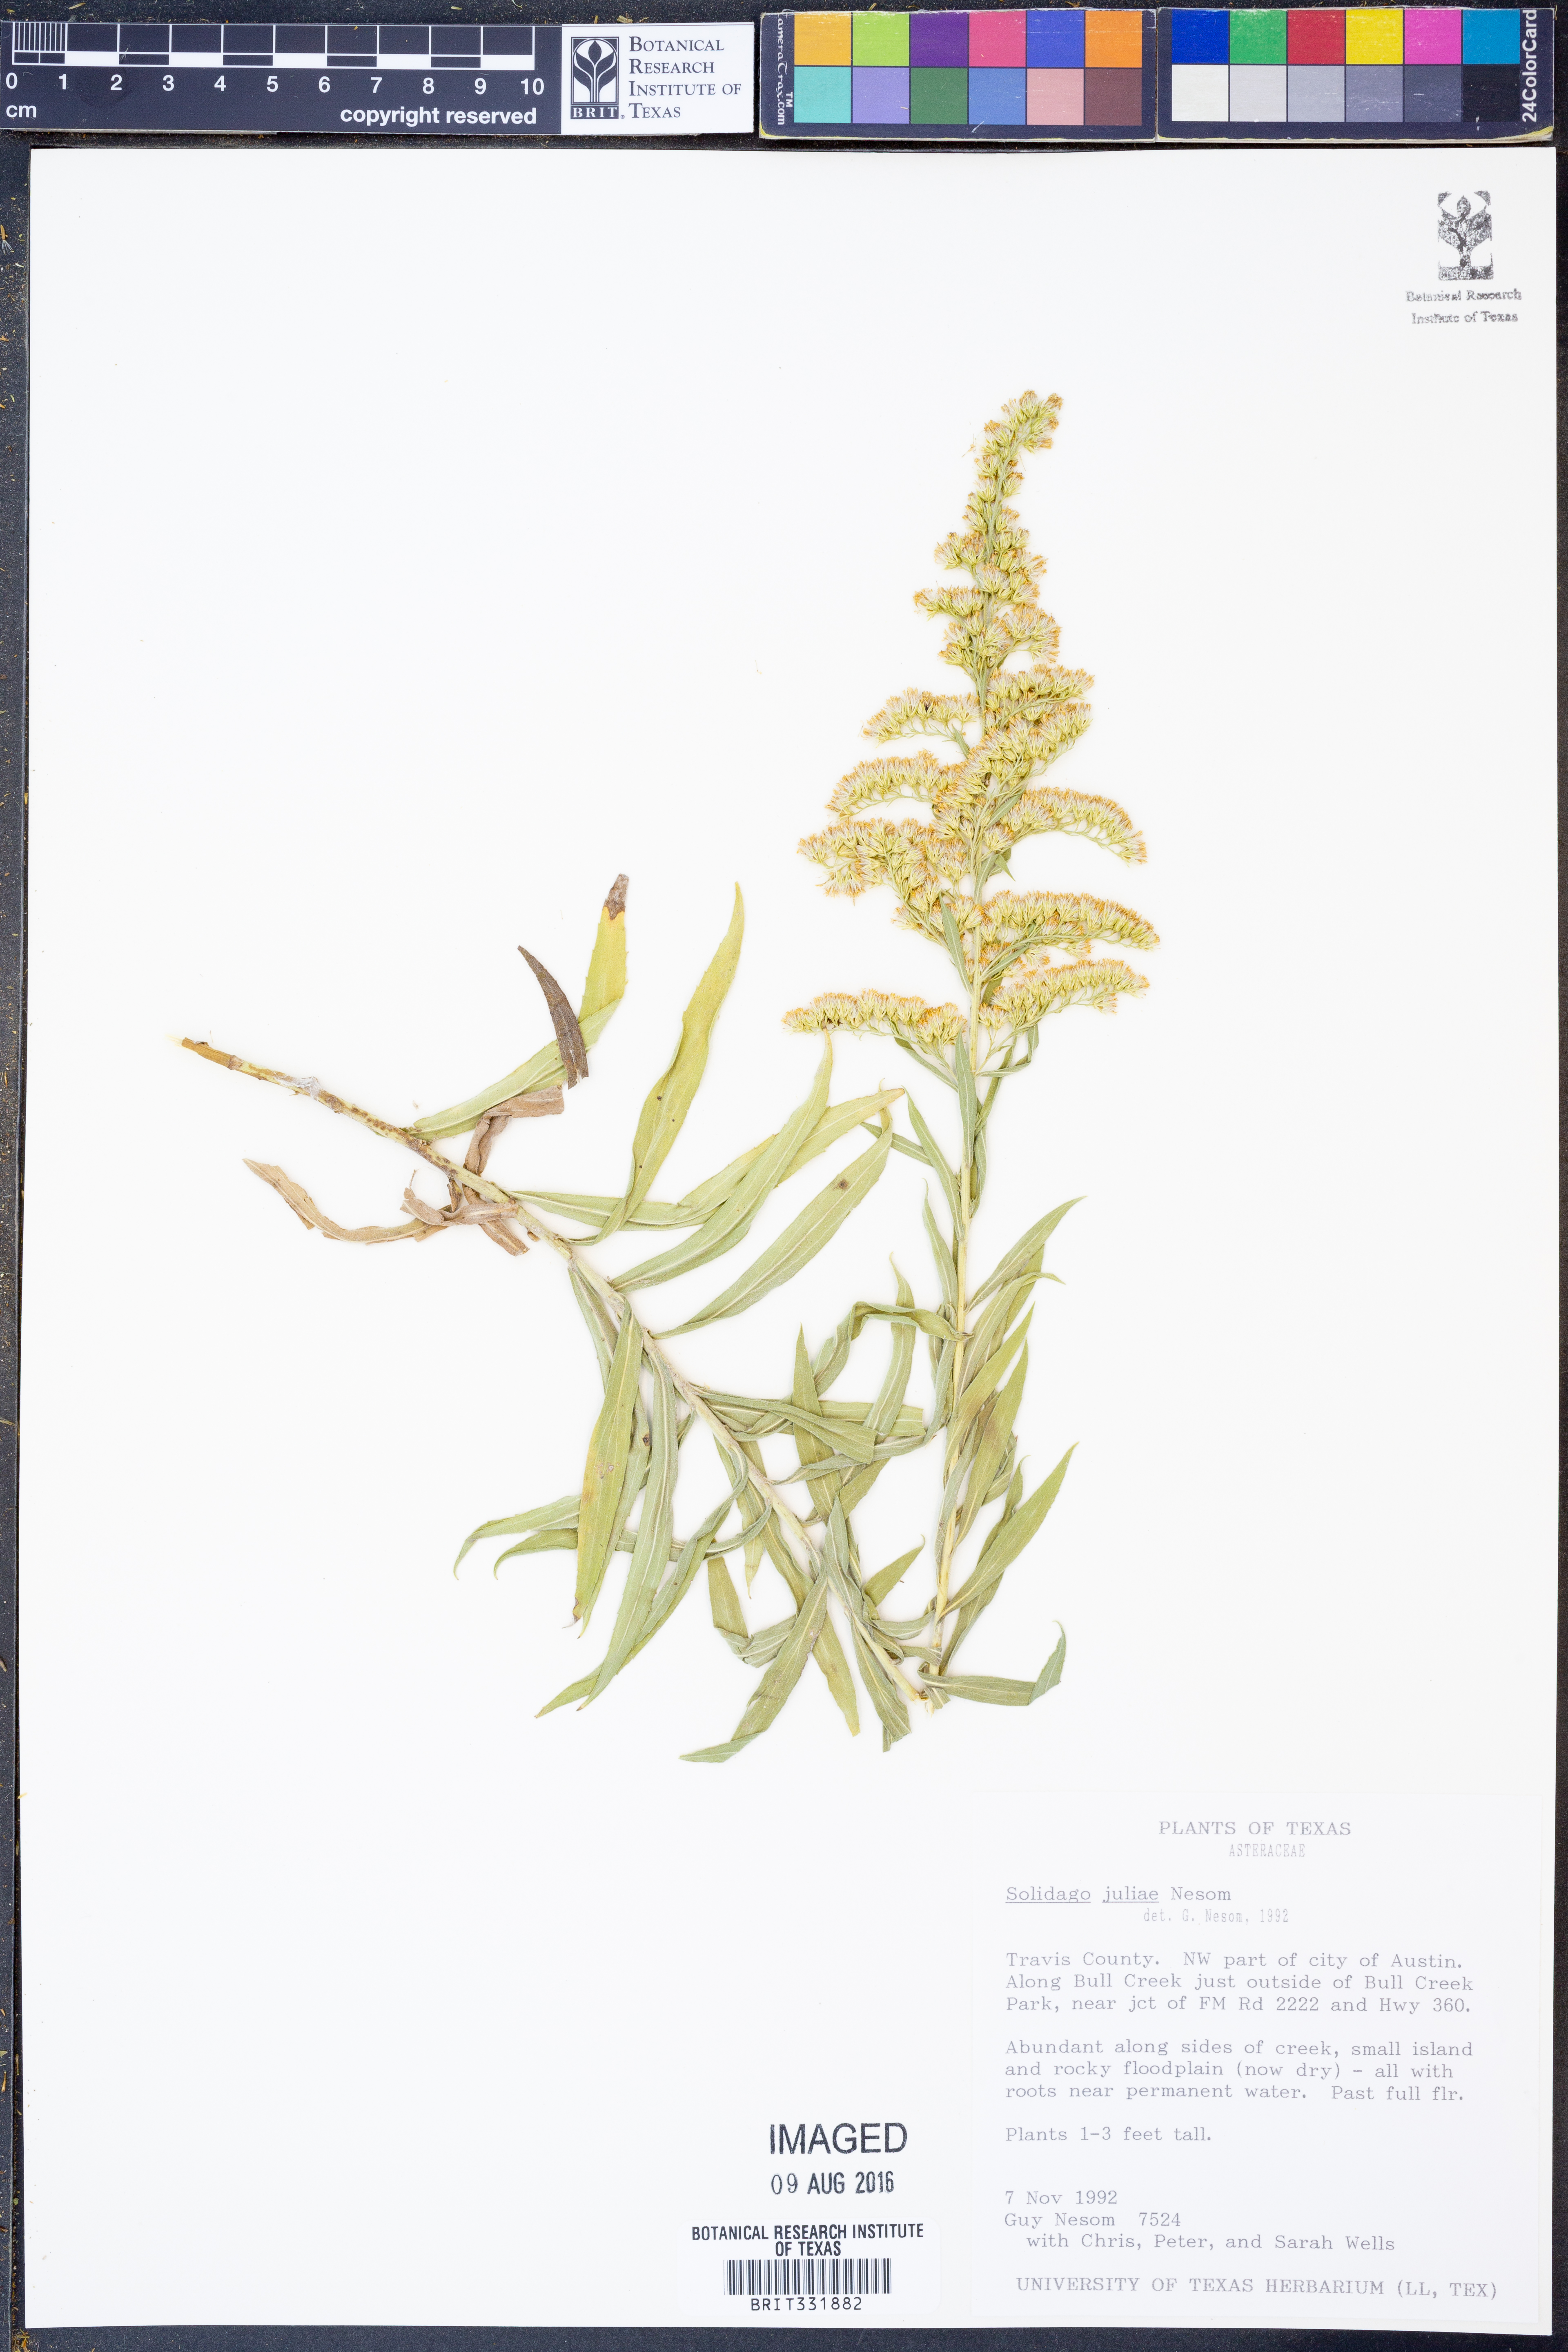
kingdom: Plantae
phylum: Tracheophyta
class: Magnoliopsida
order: Asterales
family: Asteraceae
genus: Solidago
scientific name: Solidago juliae
